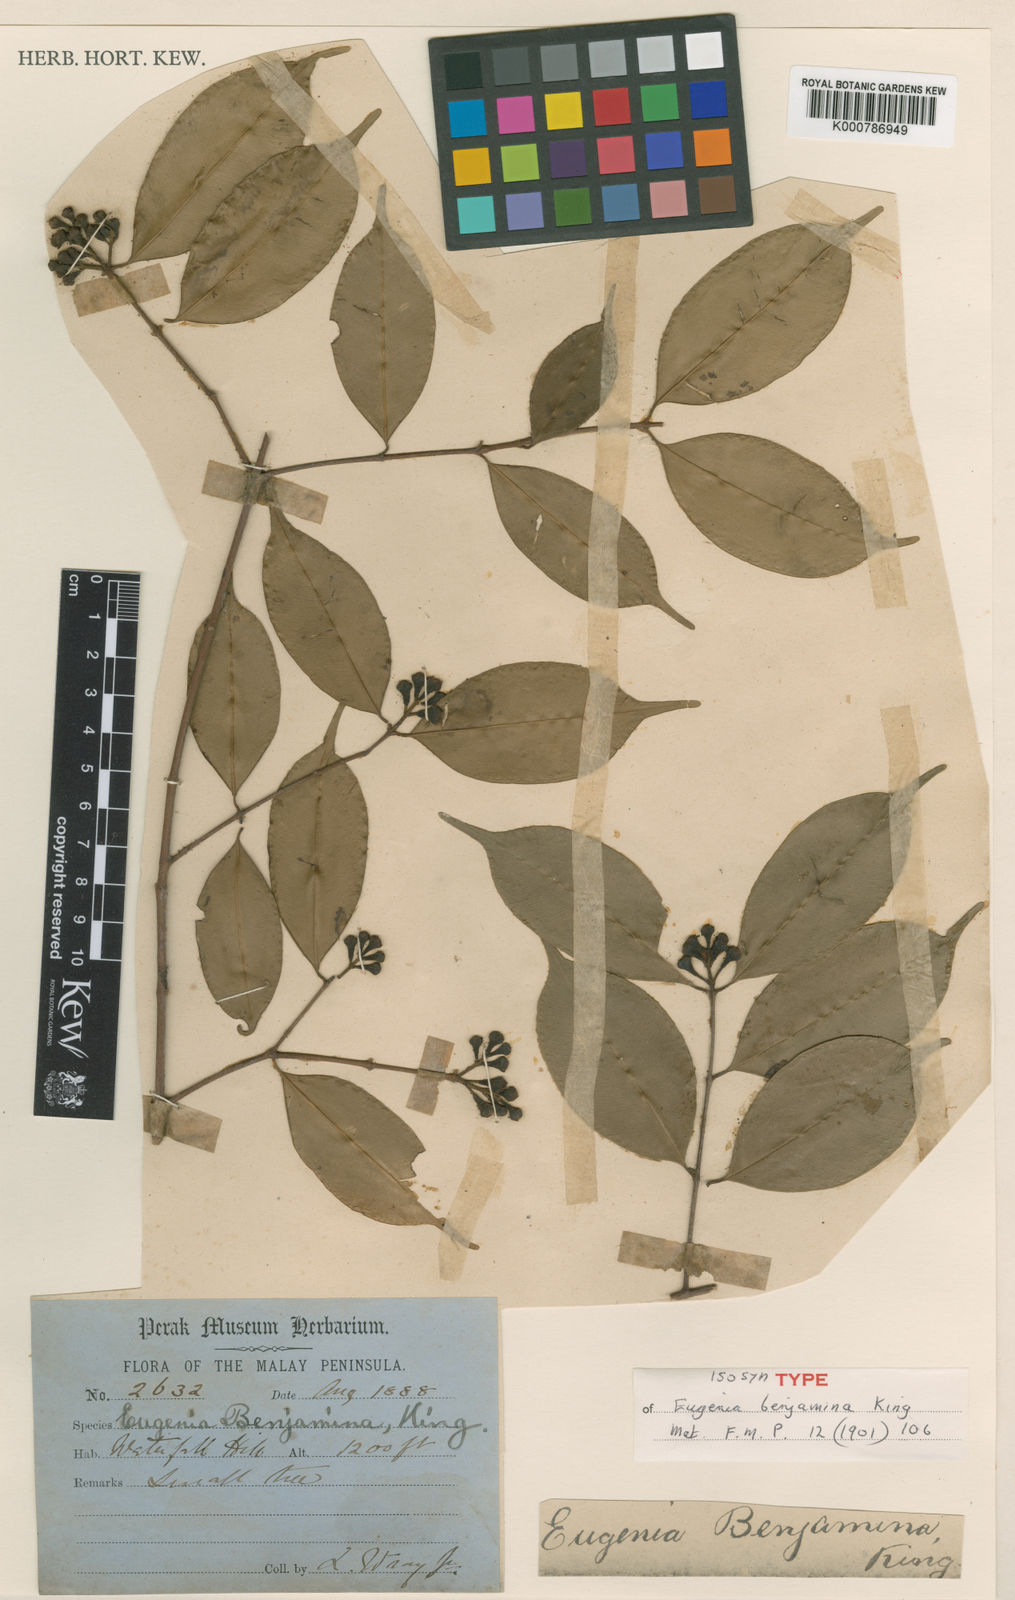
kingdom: Plantae
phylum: Tracheophyta
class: Magnoliopsida
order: Myrtales
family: Myrtaceae
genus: Syzygium
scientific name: Syzygium benjaminum
